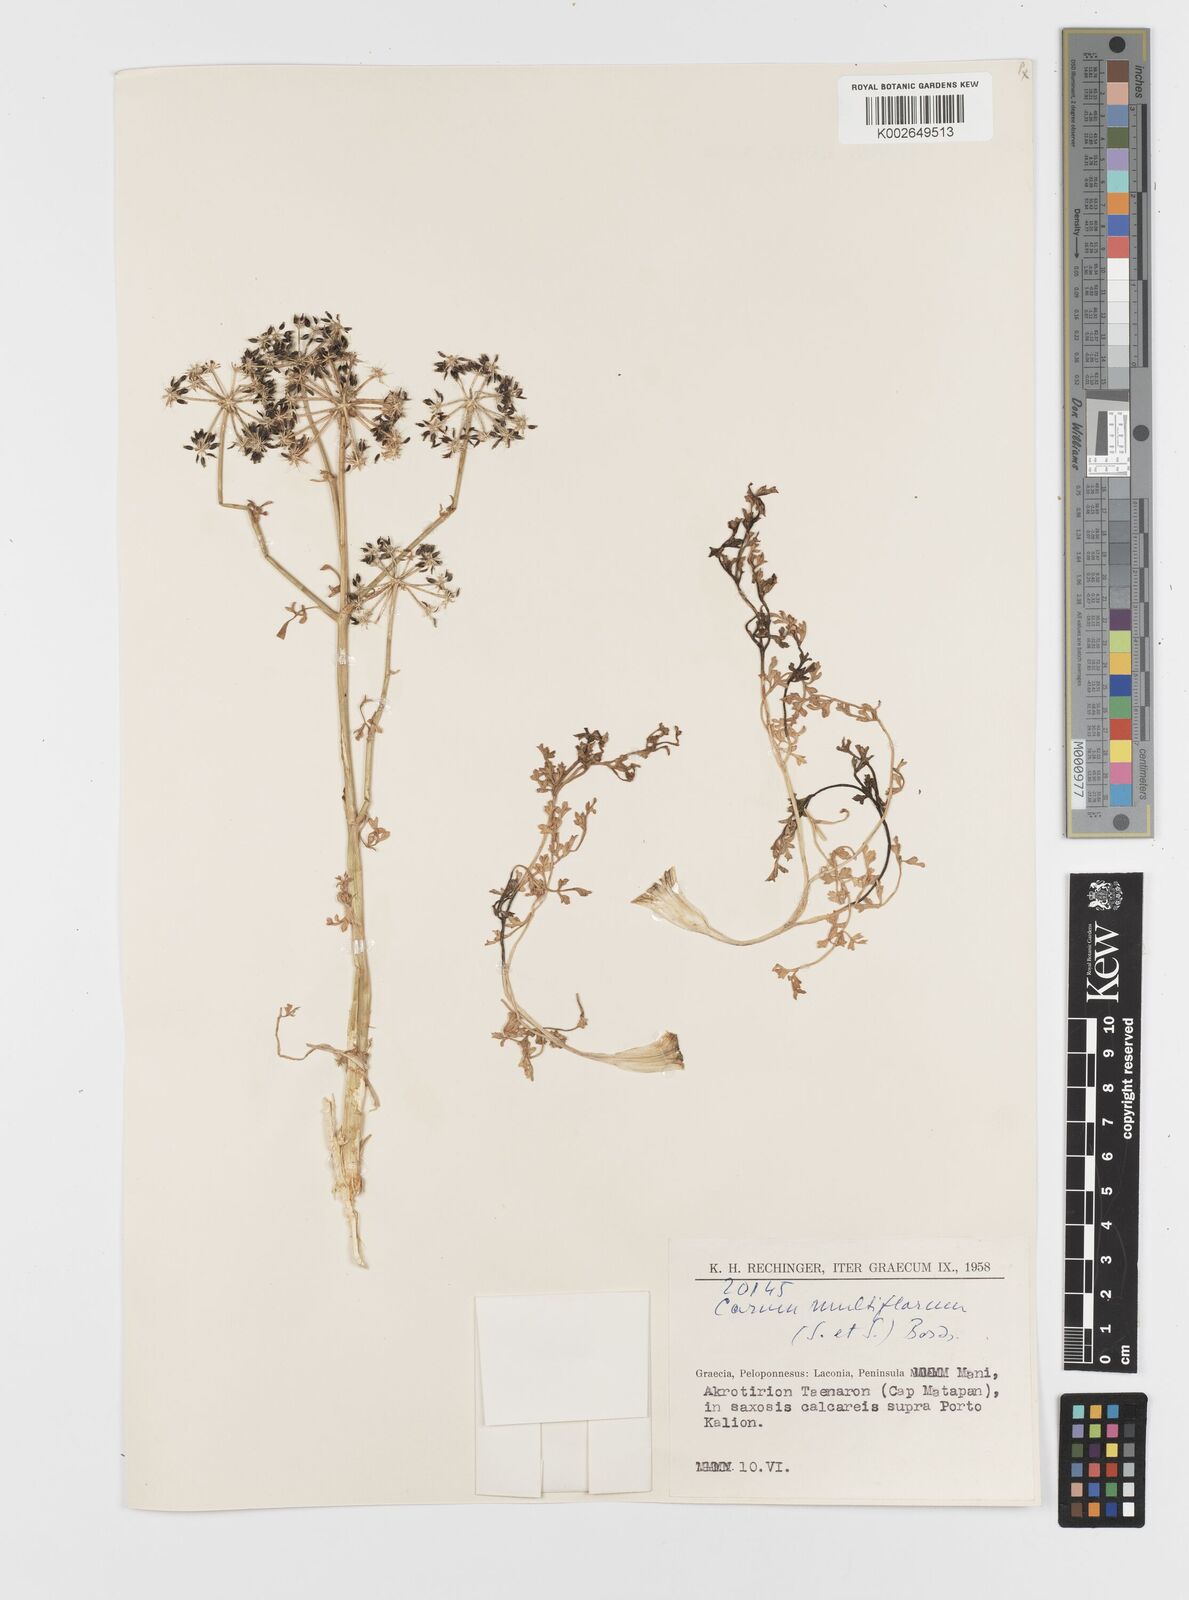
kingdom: Plantae
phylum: Tracheophyta
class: Magnoliopsida
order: Apiales
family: Apiaceae
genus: Hellenocarum
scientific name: Hellenocarum multiflorum
